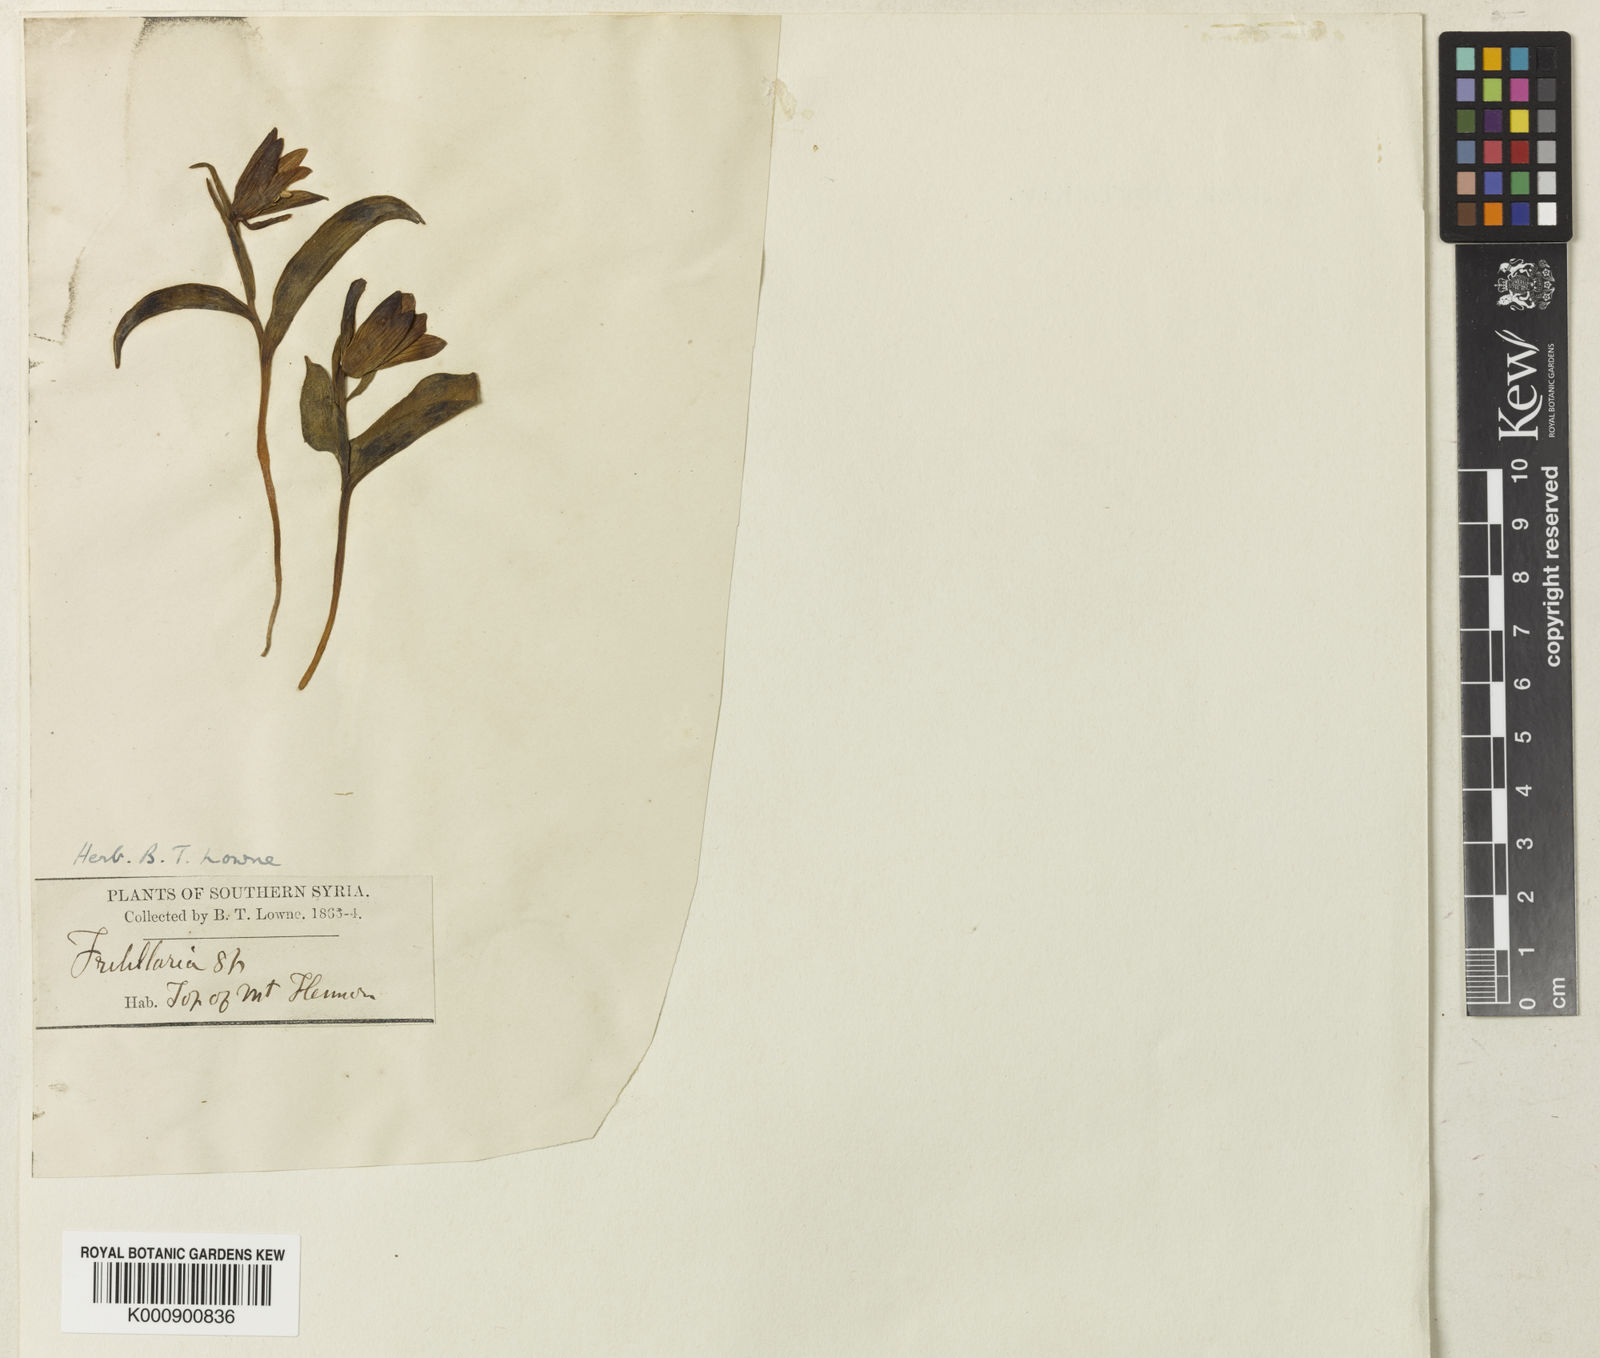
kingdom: Plantae
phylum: Tracheophyta
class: Liliopsida
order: Liliales
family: Liliaceae
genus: Fritillaria
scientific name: Fritillaria crassifolia
